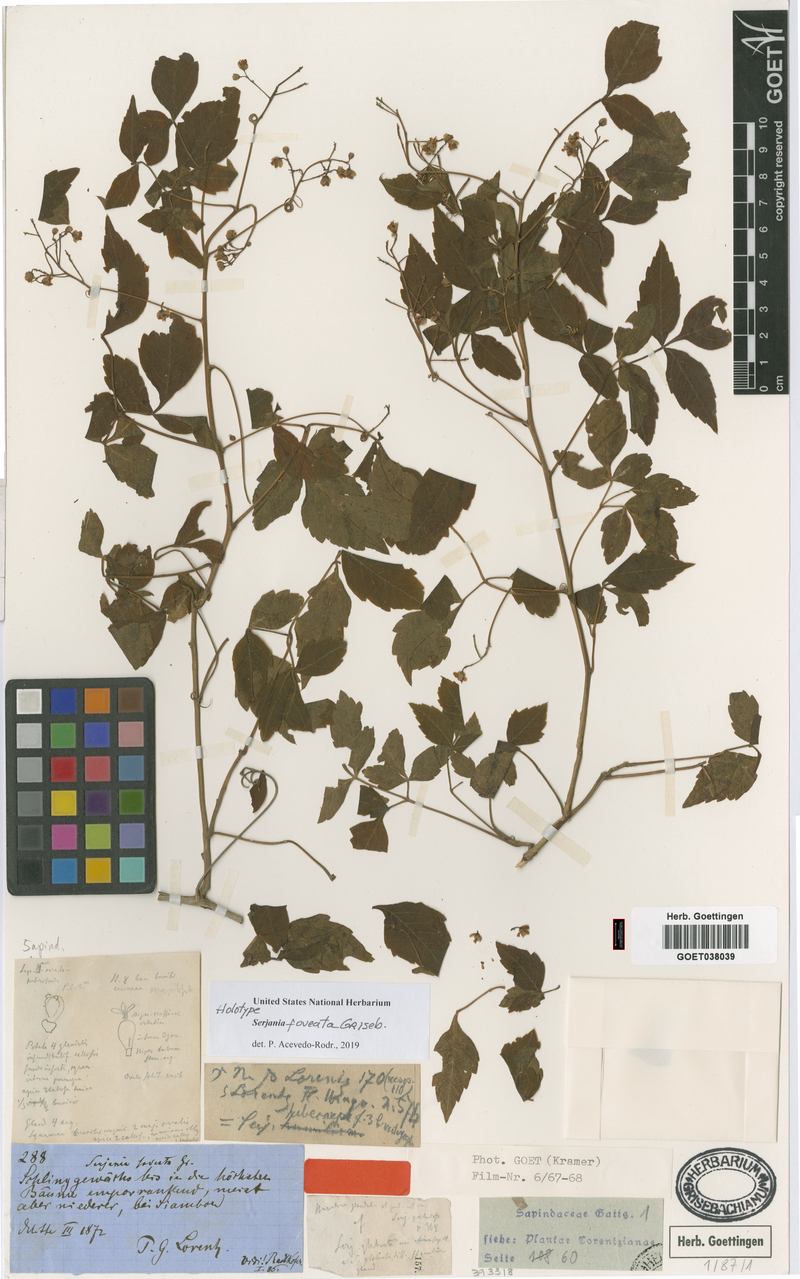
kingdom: Plantae
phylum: Tracheophyta
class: Magnoliopsida
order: Sapindales
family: Sapindaceae
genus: Serjania
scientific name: Serjania foveata
